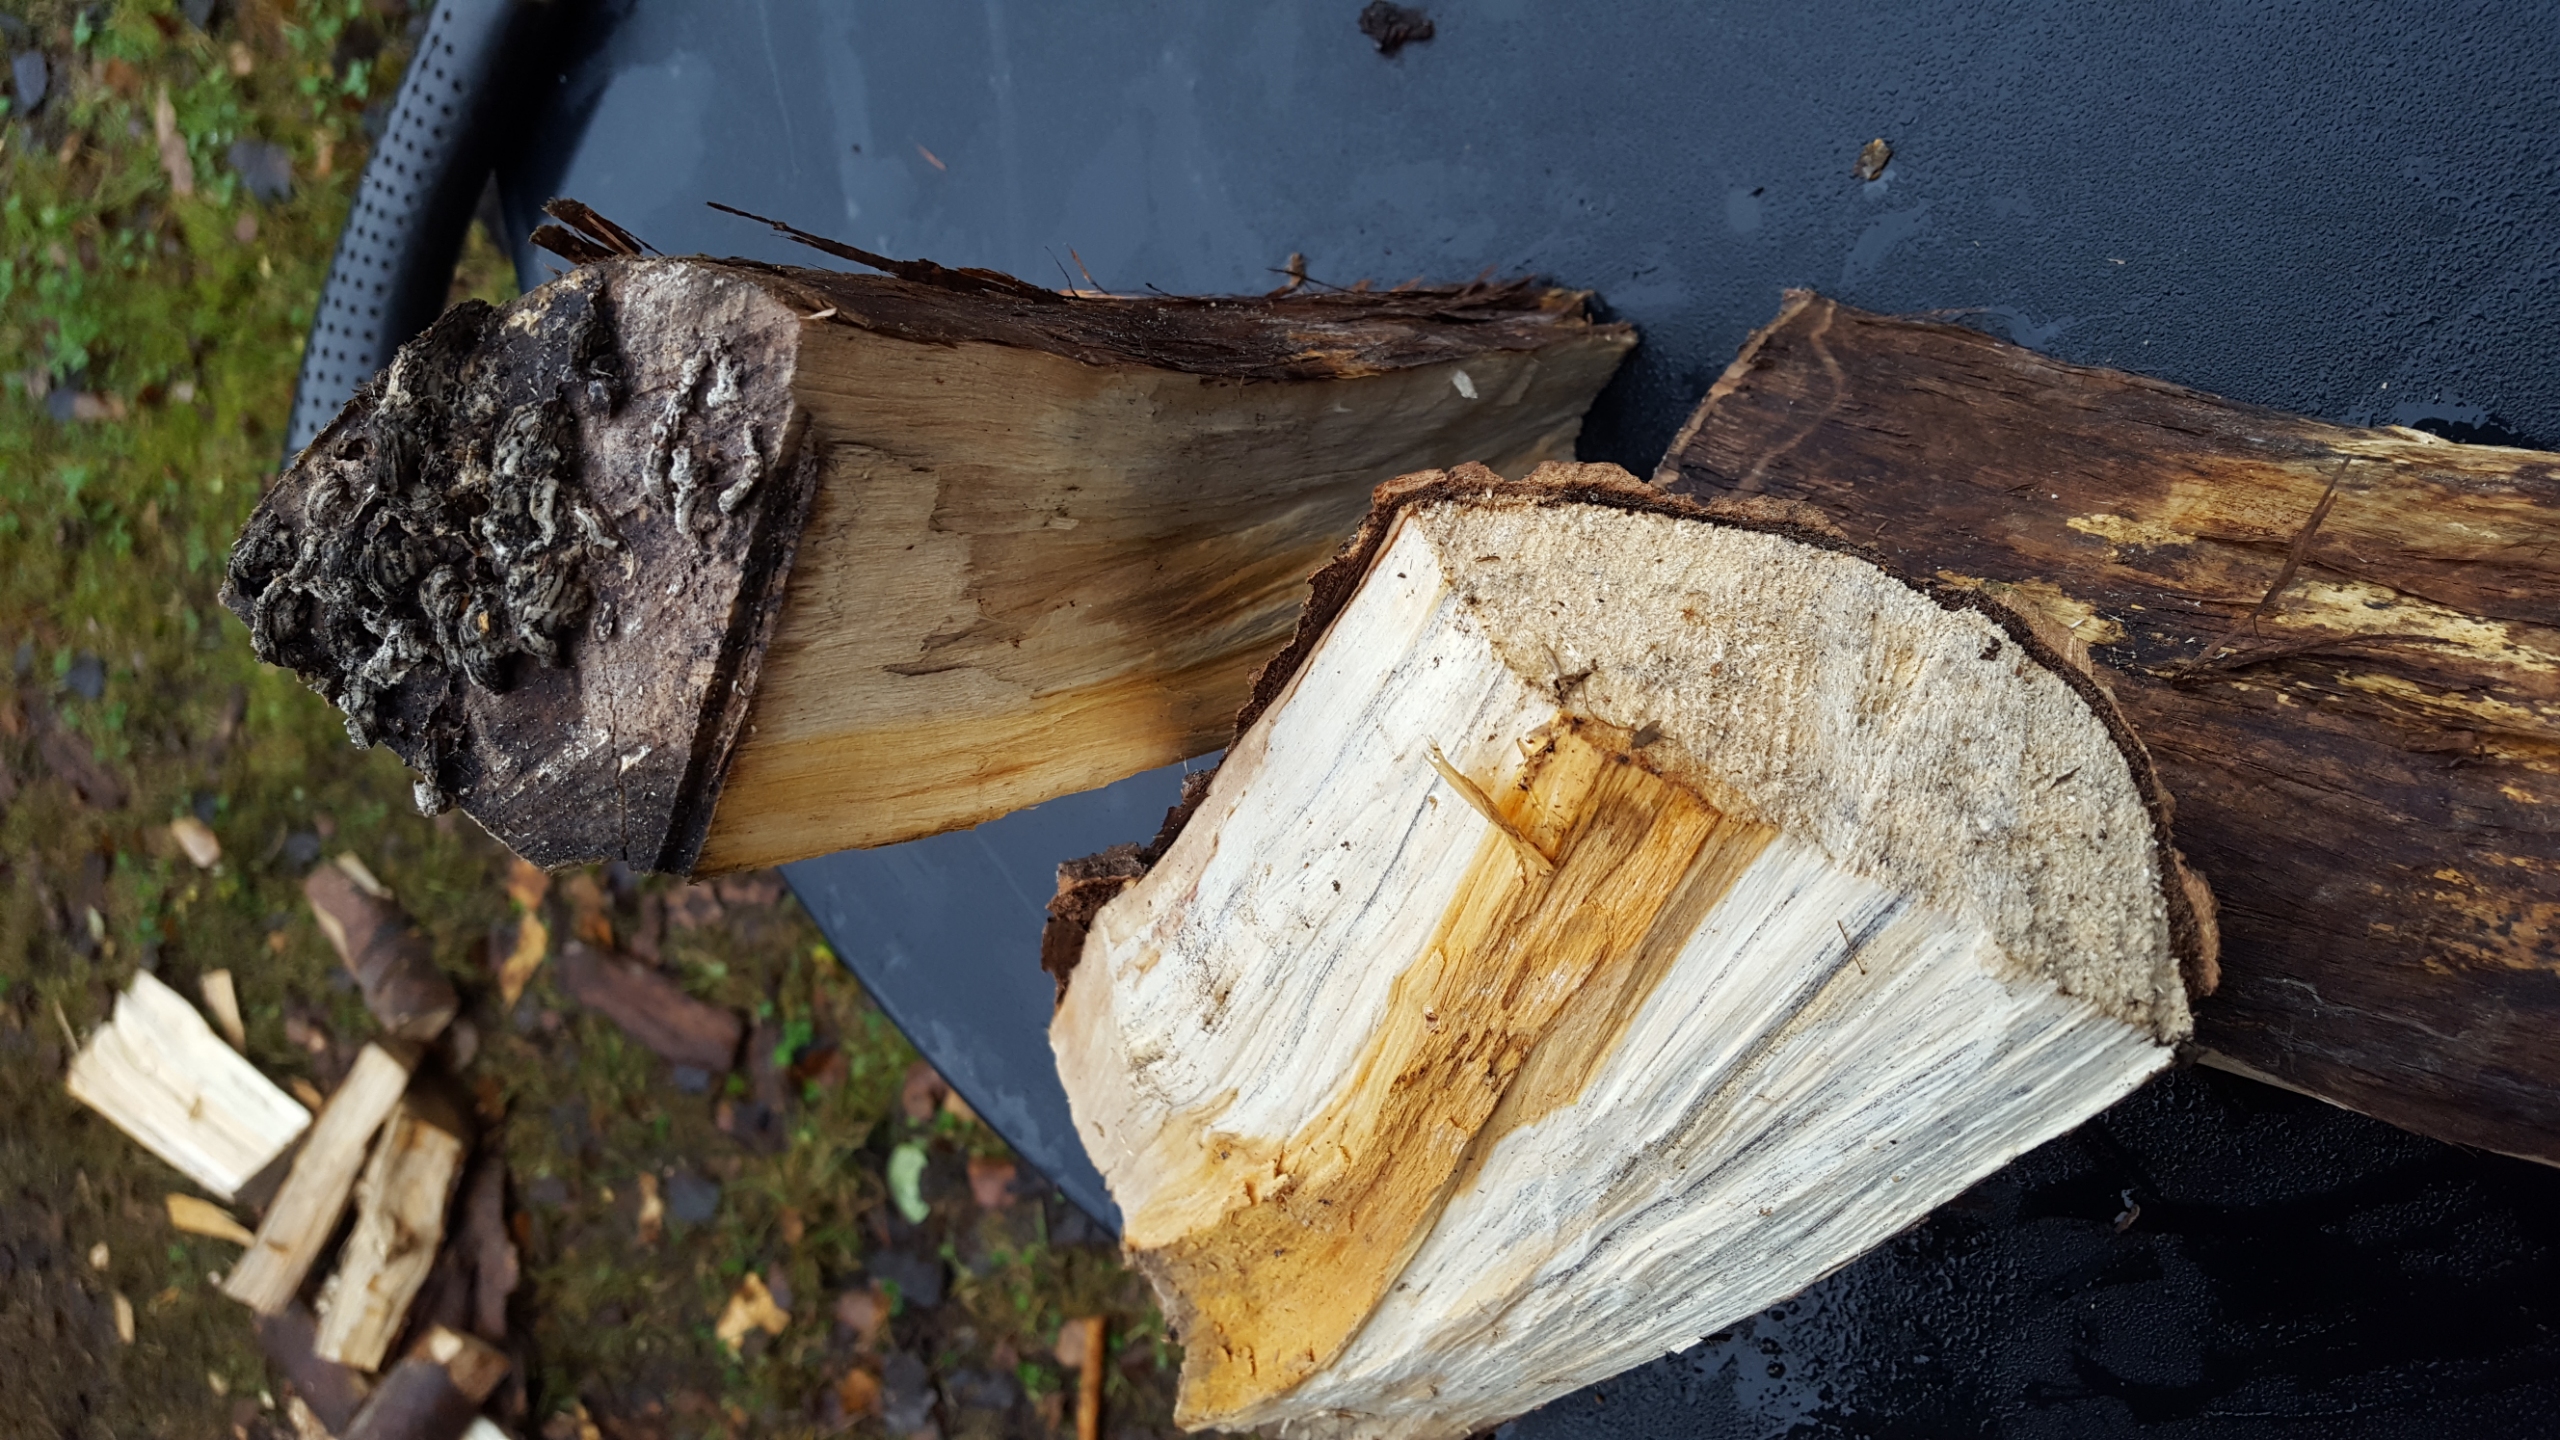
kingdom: Fungi
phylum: Basidiomycota
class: Agaricomycetes
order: Russulales
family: Stereaceae
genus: Stereum
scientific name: Stereum hirsutum
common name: Håret lædersvamp
